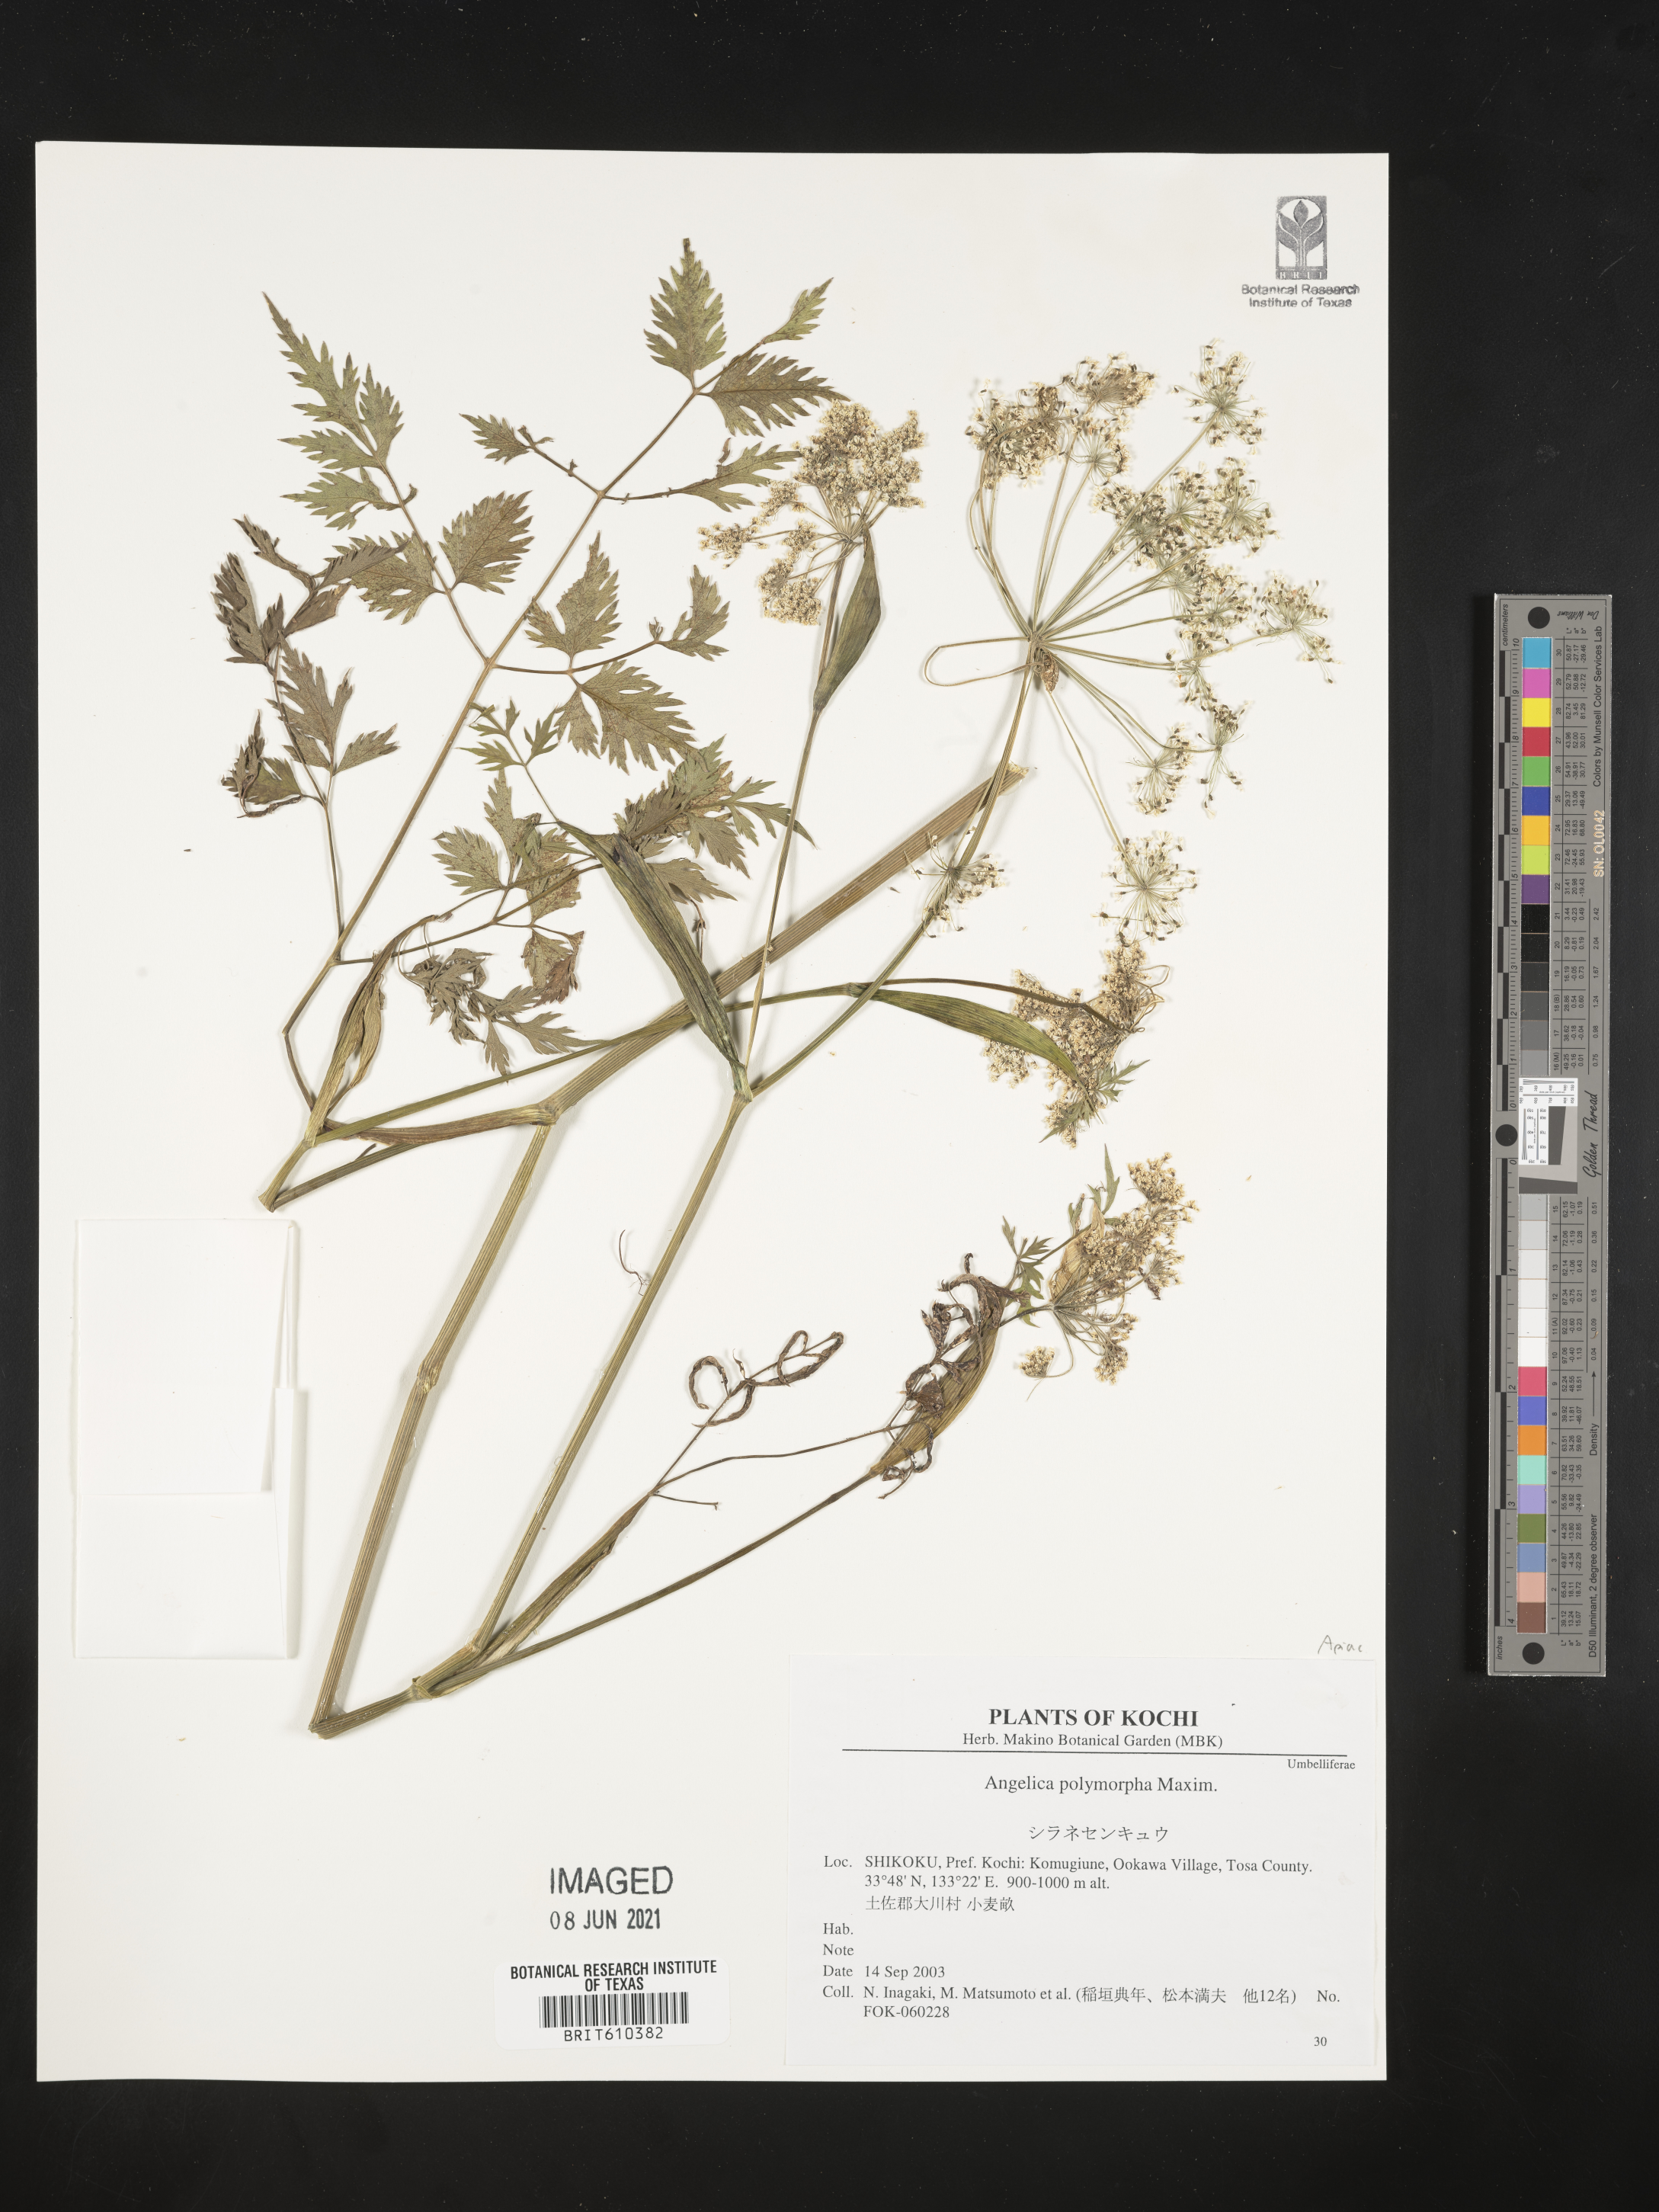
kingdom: Plantae
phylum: Tracheophyta
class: Magnoliopsida
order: Apiales
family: Apiaceae
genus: Angelica
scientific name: Angelica polymorpha
